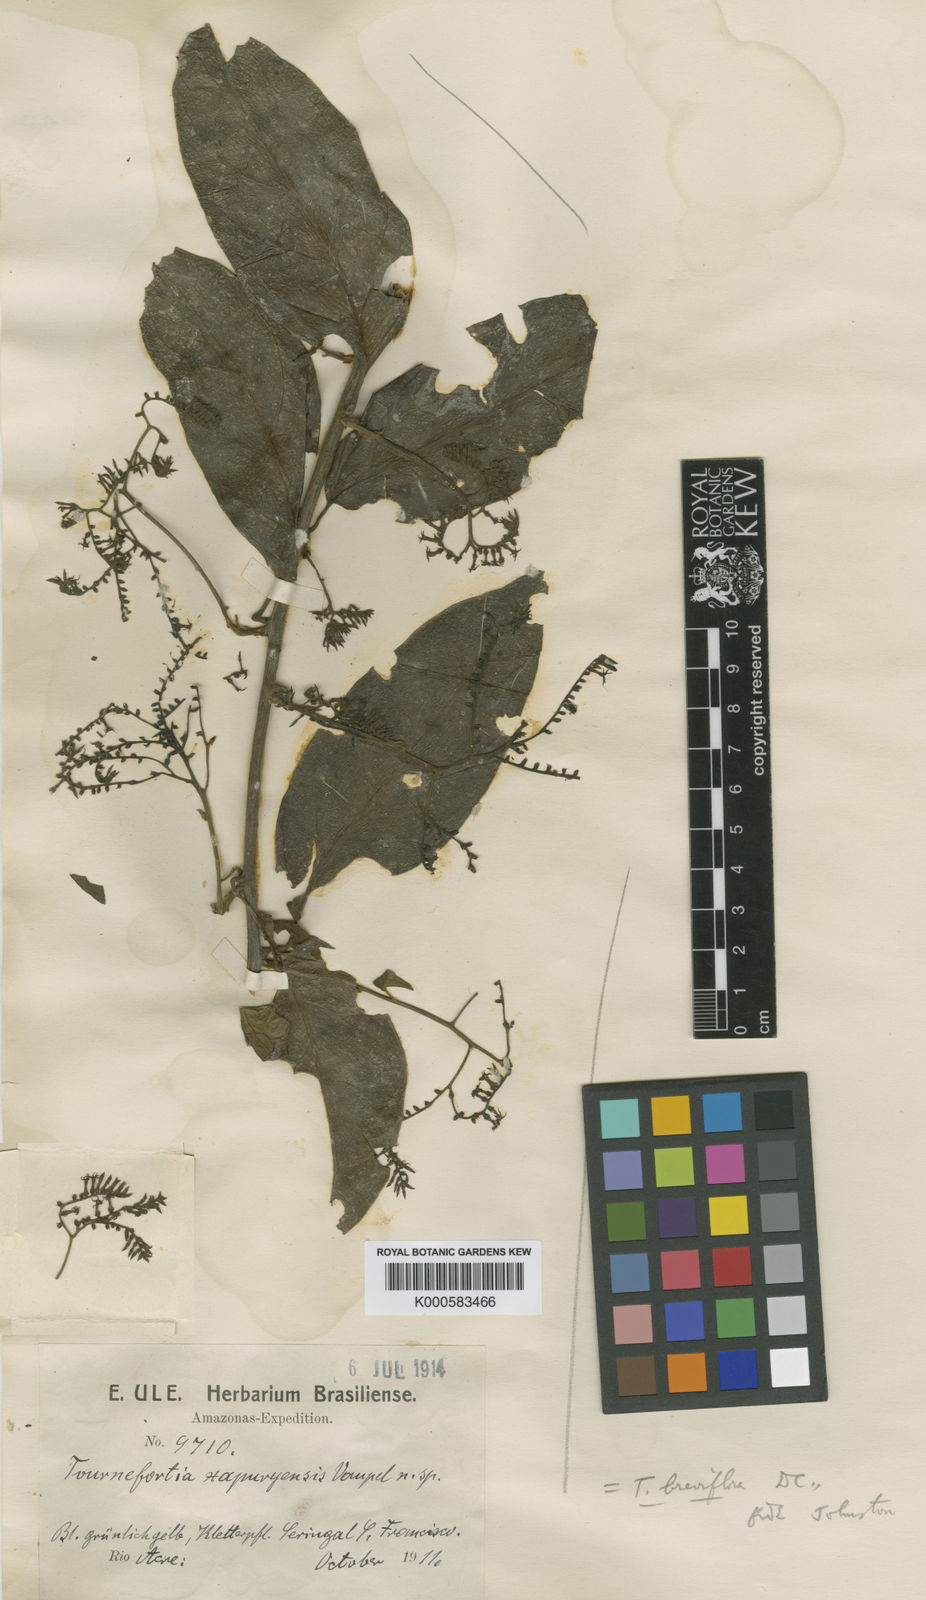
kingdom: Plantae
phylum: Tracheophyta
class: Magnoliopsida
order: Boraginales
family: Heliotropiaceae
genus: Myriopus
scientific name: Myriopus breviflorus
